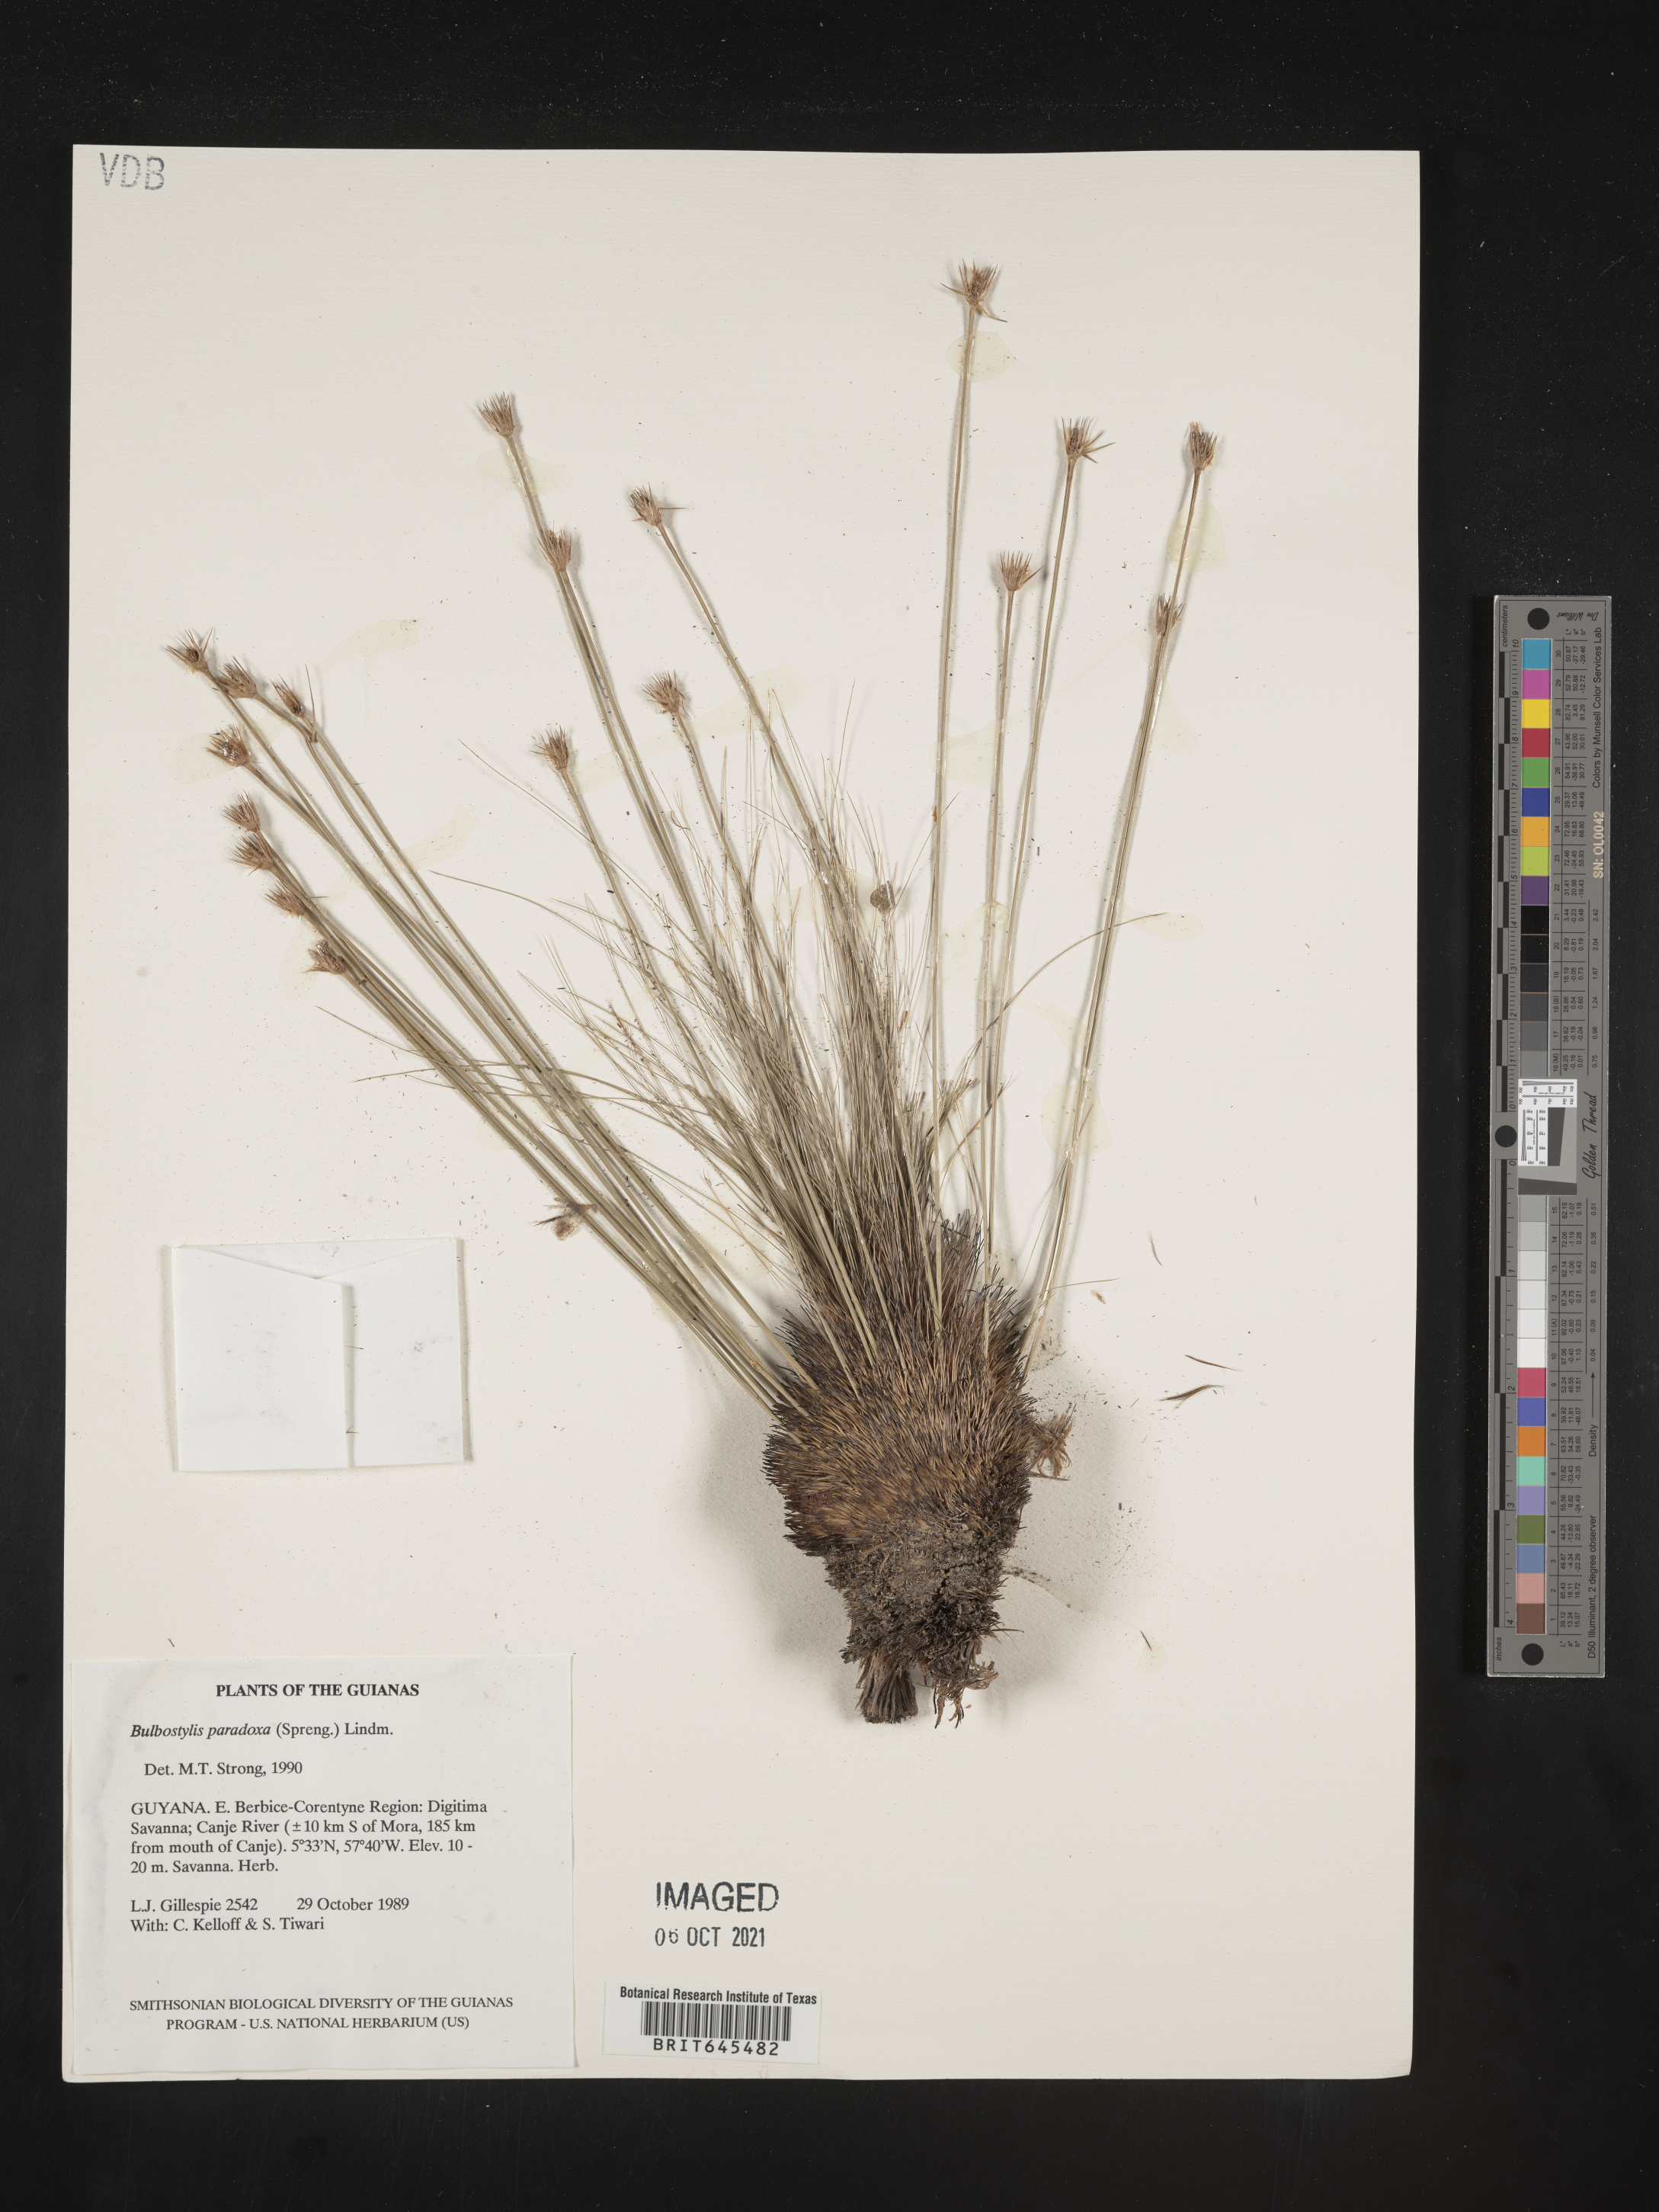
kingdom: Plantae
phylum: Tracheophyta
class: Liliopsida
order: Poales
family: Cyperaceae
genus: Bulbostylis
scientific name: Bulbostylis paradoxa
